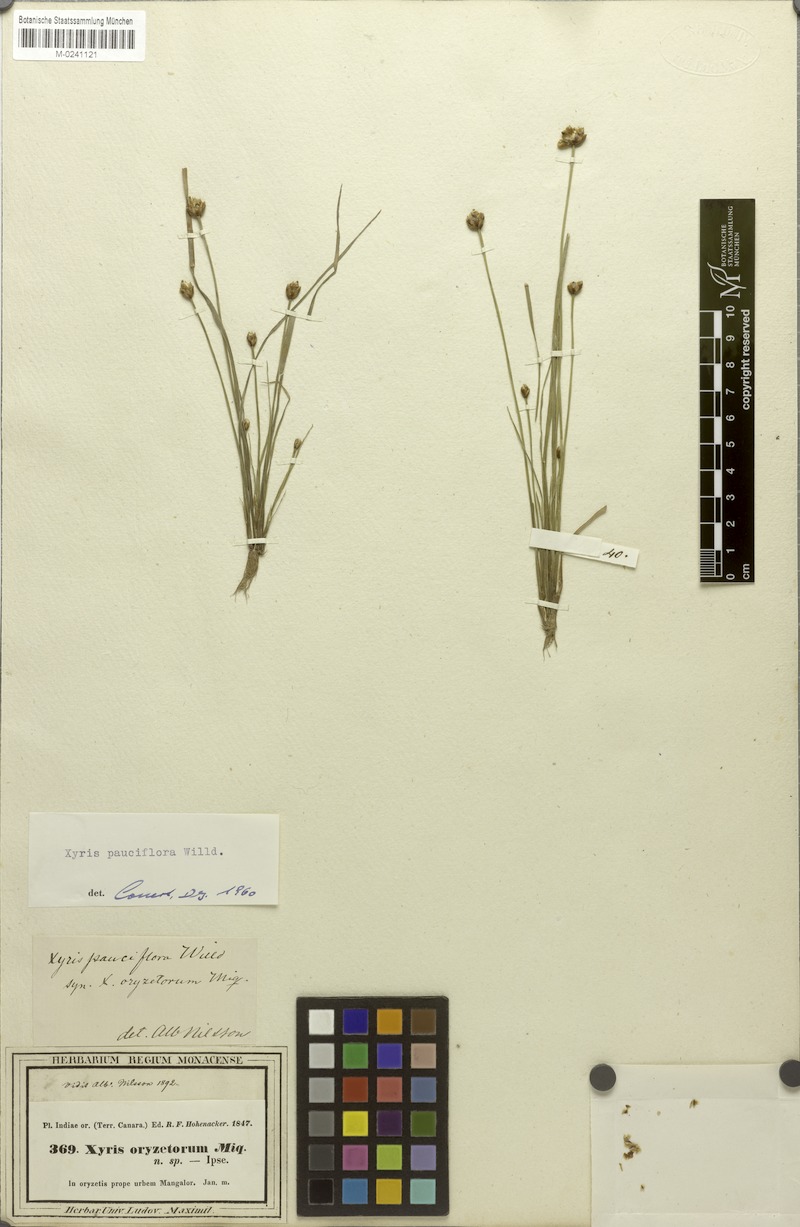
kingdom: Plantae
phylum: Tracheophyta
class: Liliopsida
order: Poales
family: Xyridaceae
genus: Xyris
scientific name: Xyris pauciflora
